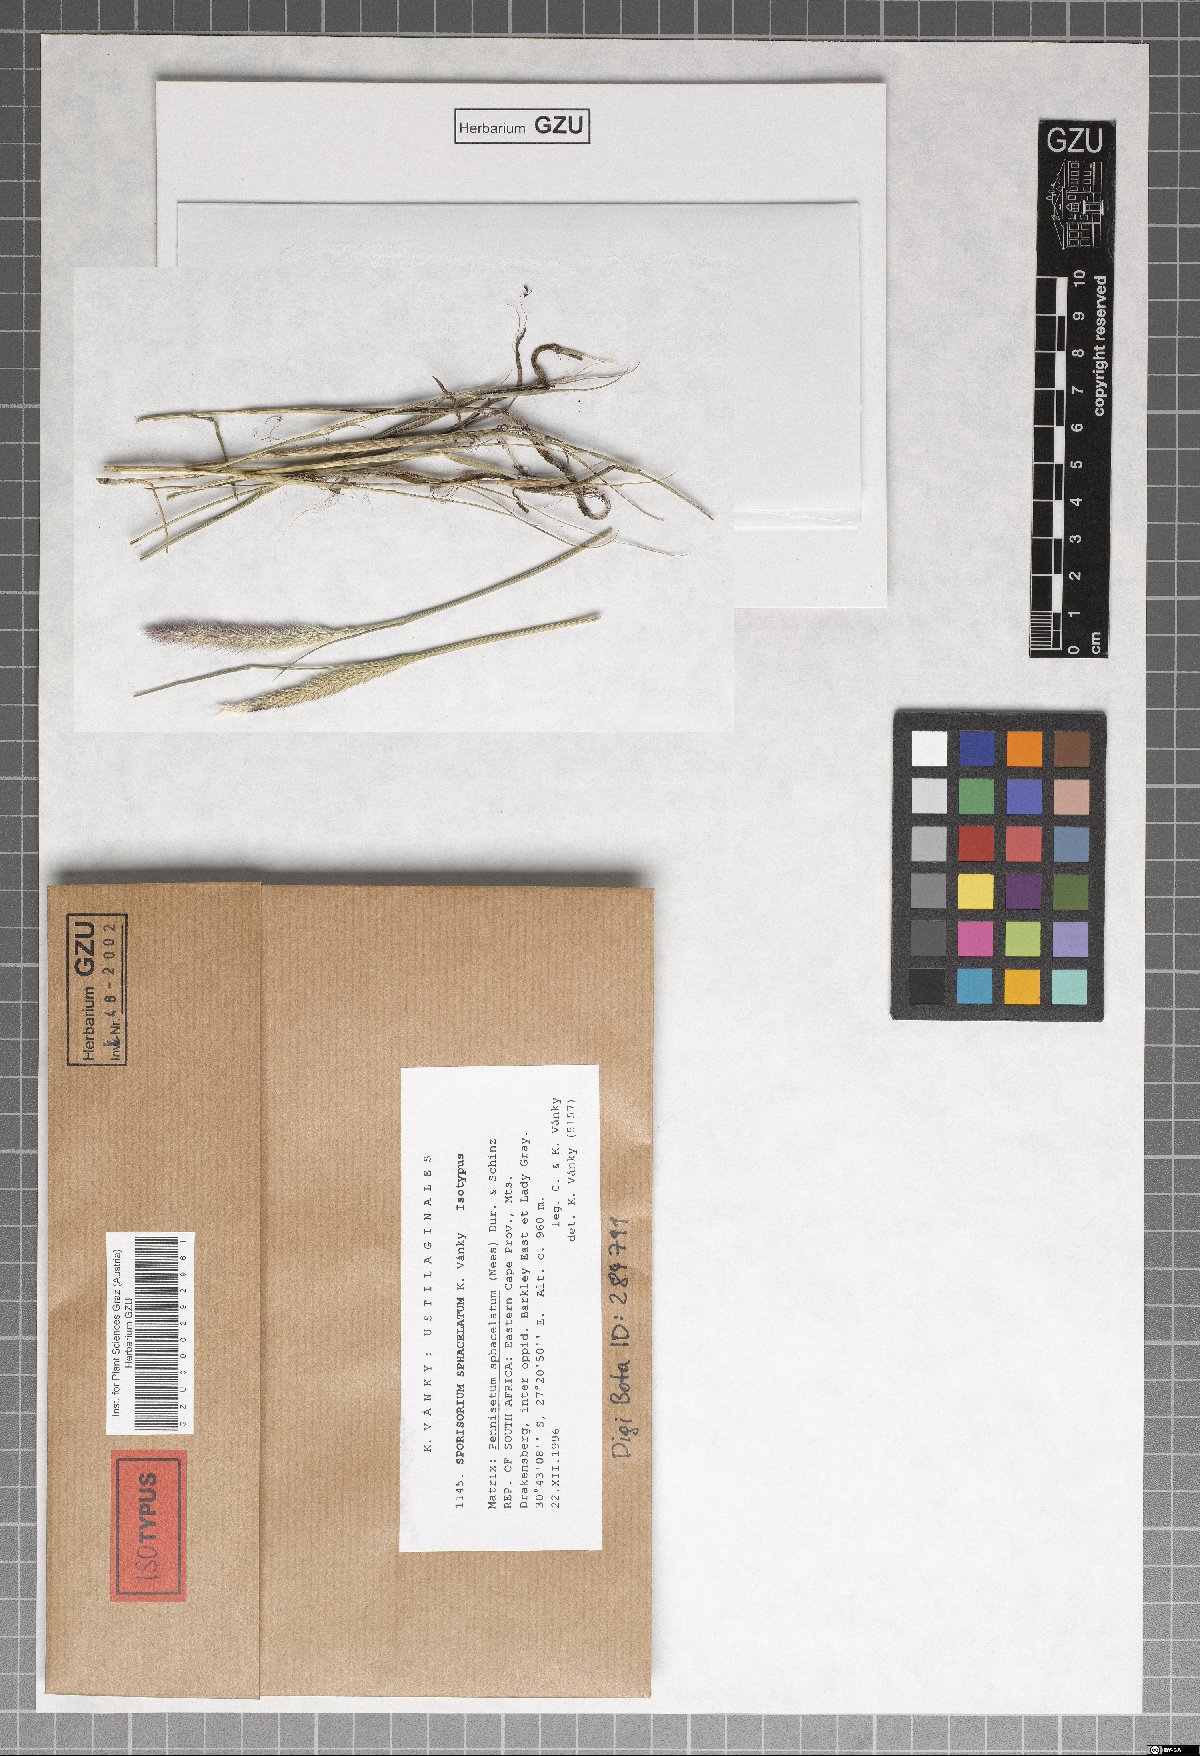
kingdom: Fungi
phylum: Basidiomycota
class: Ustilaginomycetes
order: Ustilaginales
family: Ustilaginaceae
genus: Anthracocystis
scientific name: Anthracocystis sphacelata
